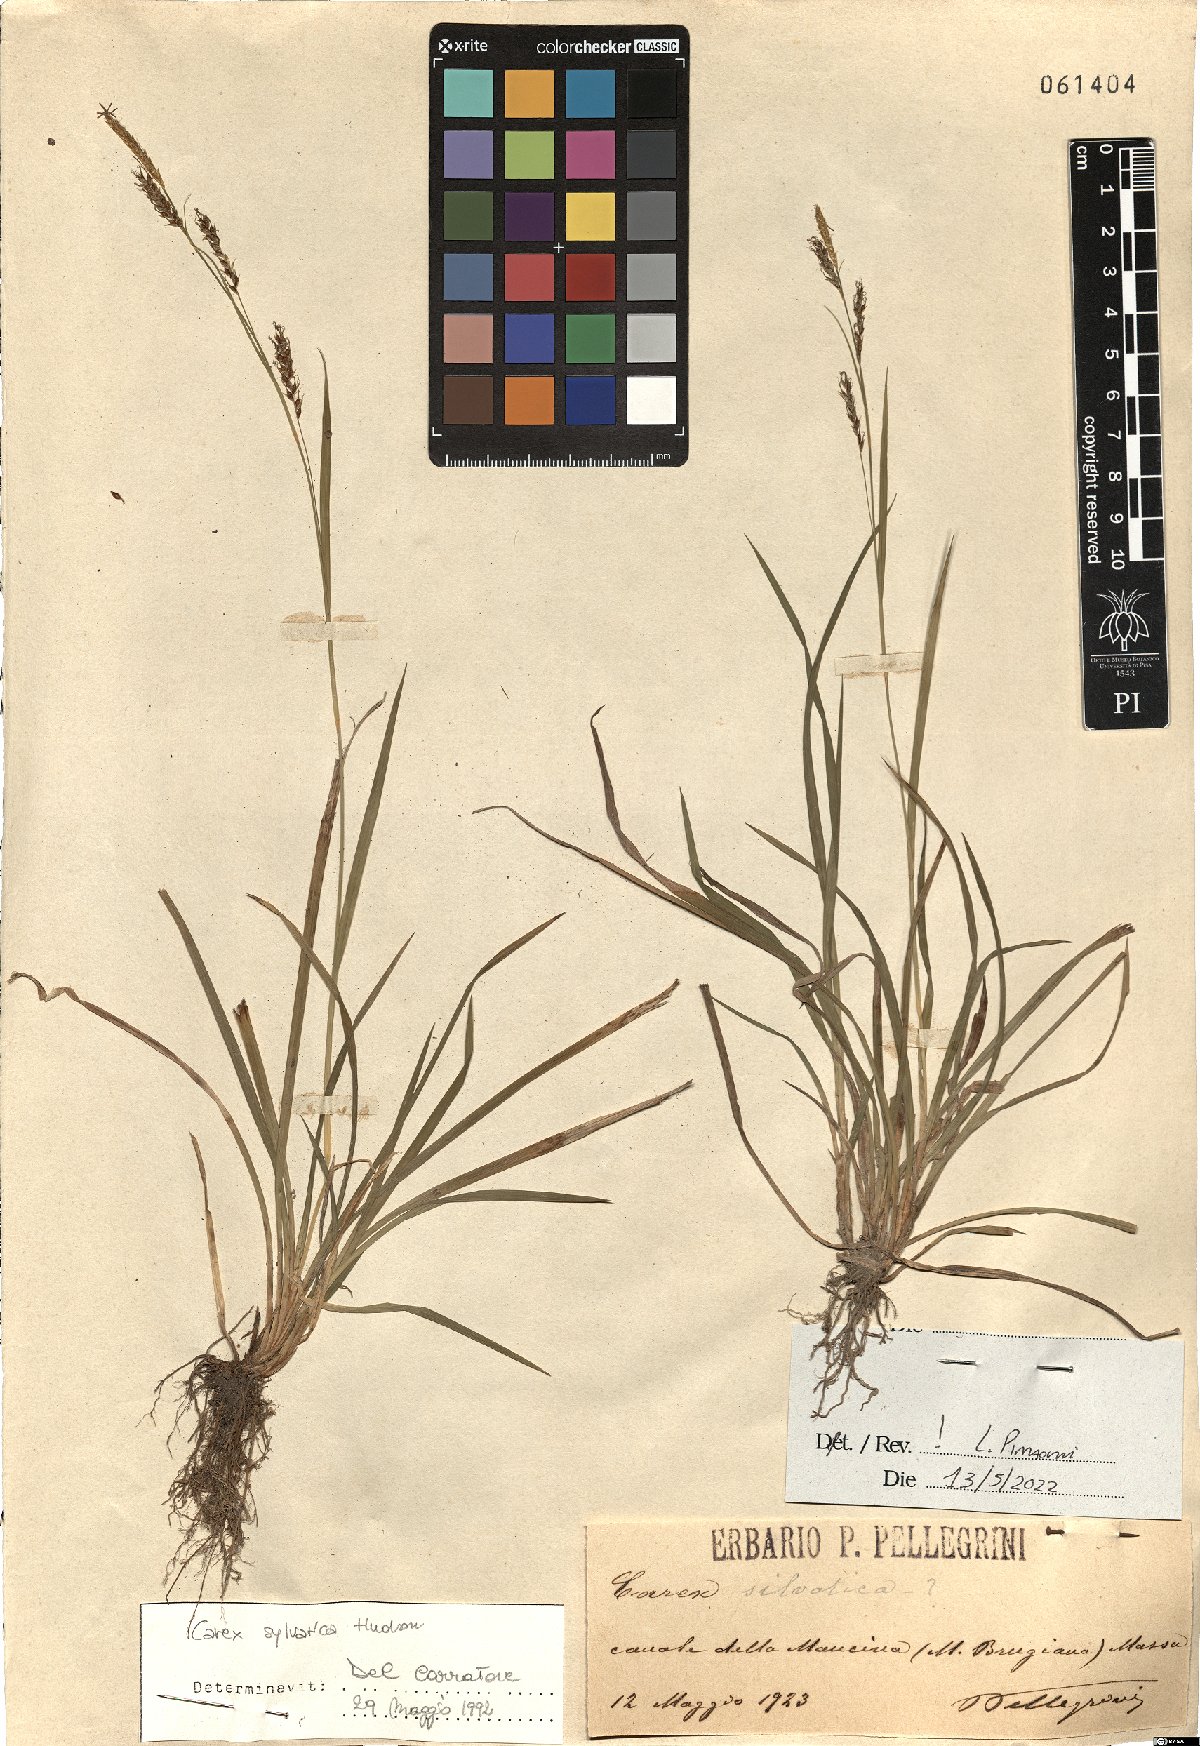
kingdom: Plantae
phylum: Tracheophyta
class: Liliopsida
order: Poales
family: Cyperaceae
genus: Carex
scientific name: Carex sylvatica
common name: Wood-sedge
